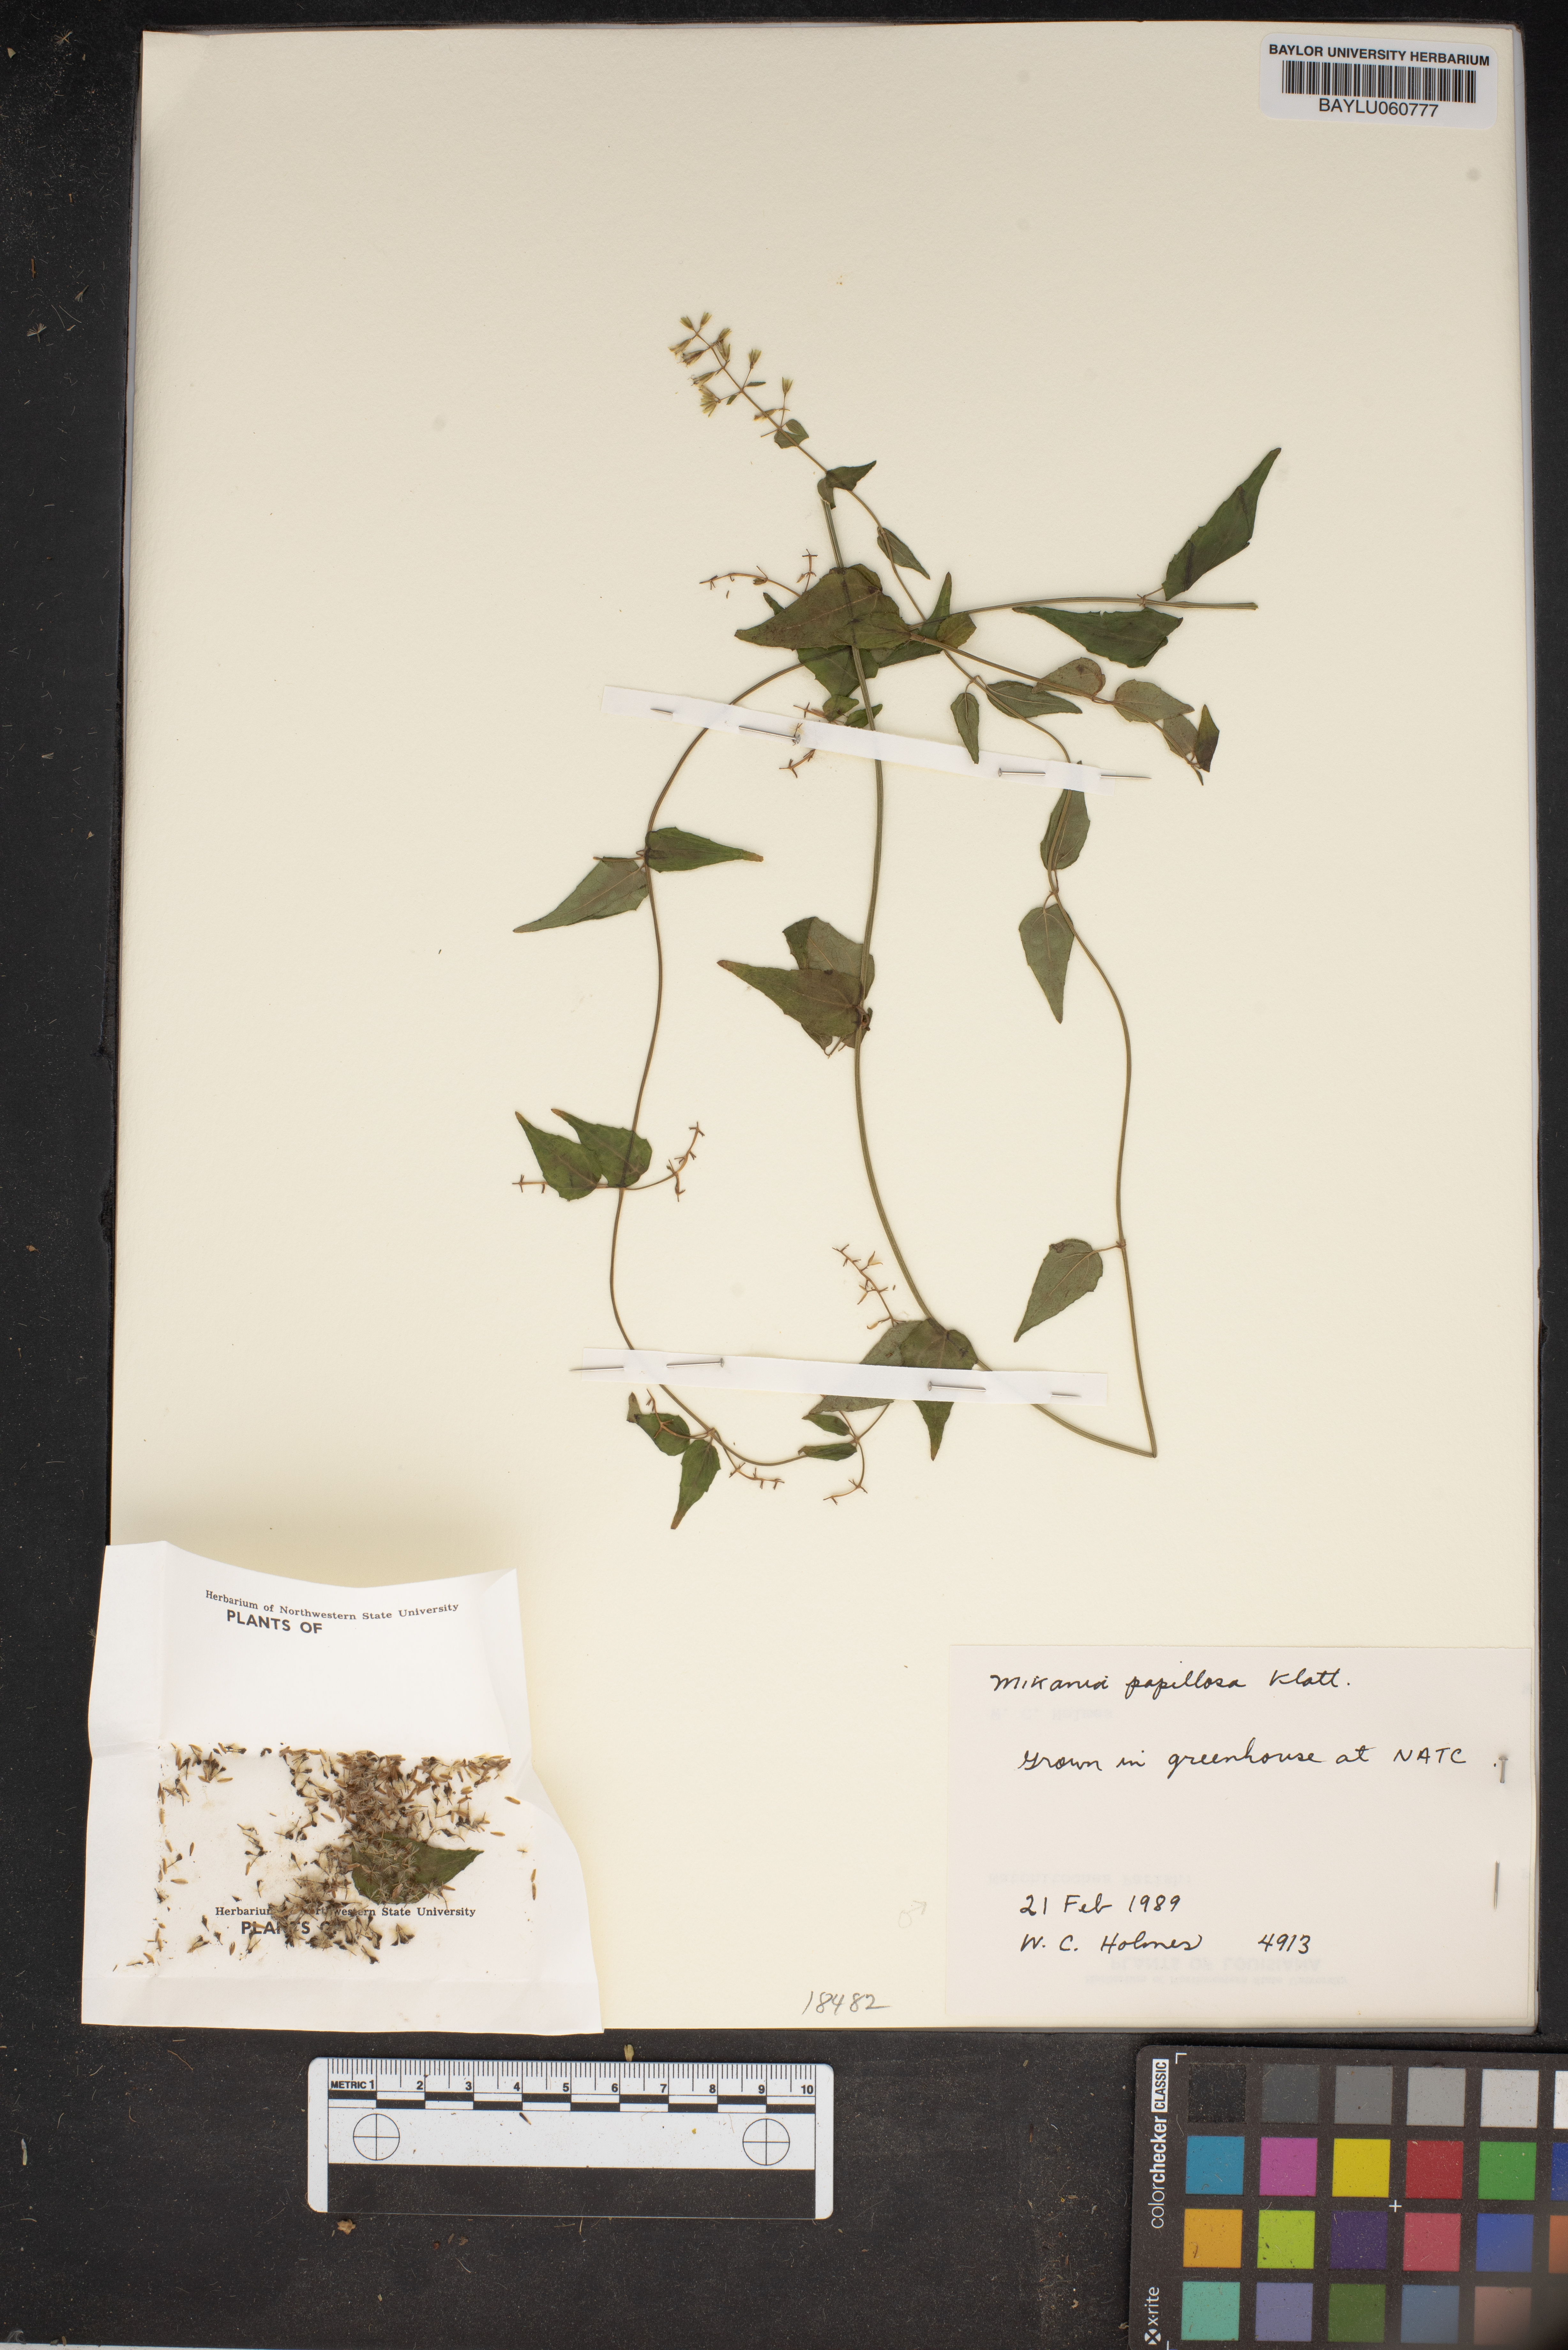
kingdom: Plantae
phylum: Tracheophyta
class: Magnoliopsida
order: Asterales
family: Asteraceae
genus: Mikania
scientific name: Mikania papillosa
